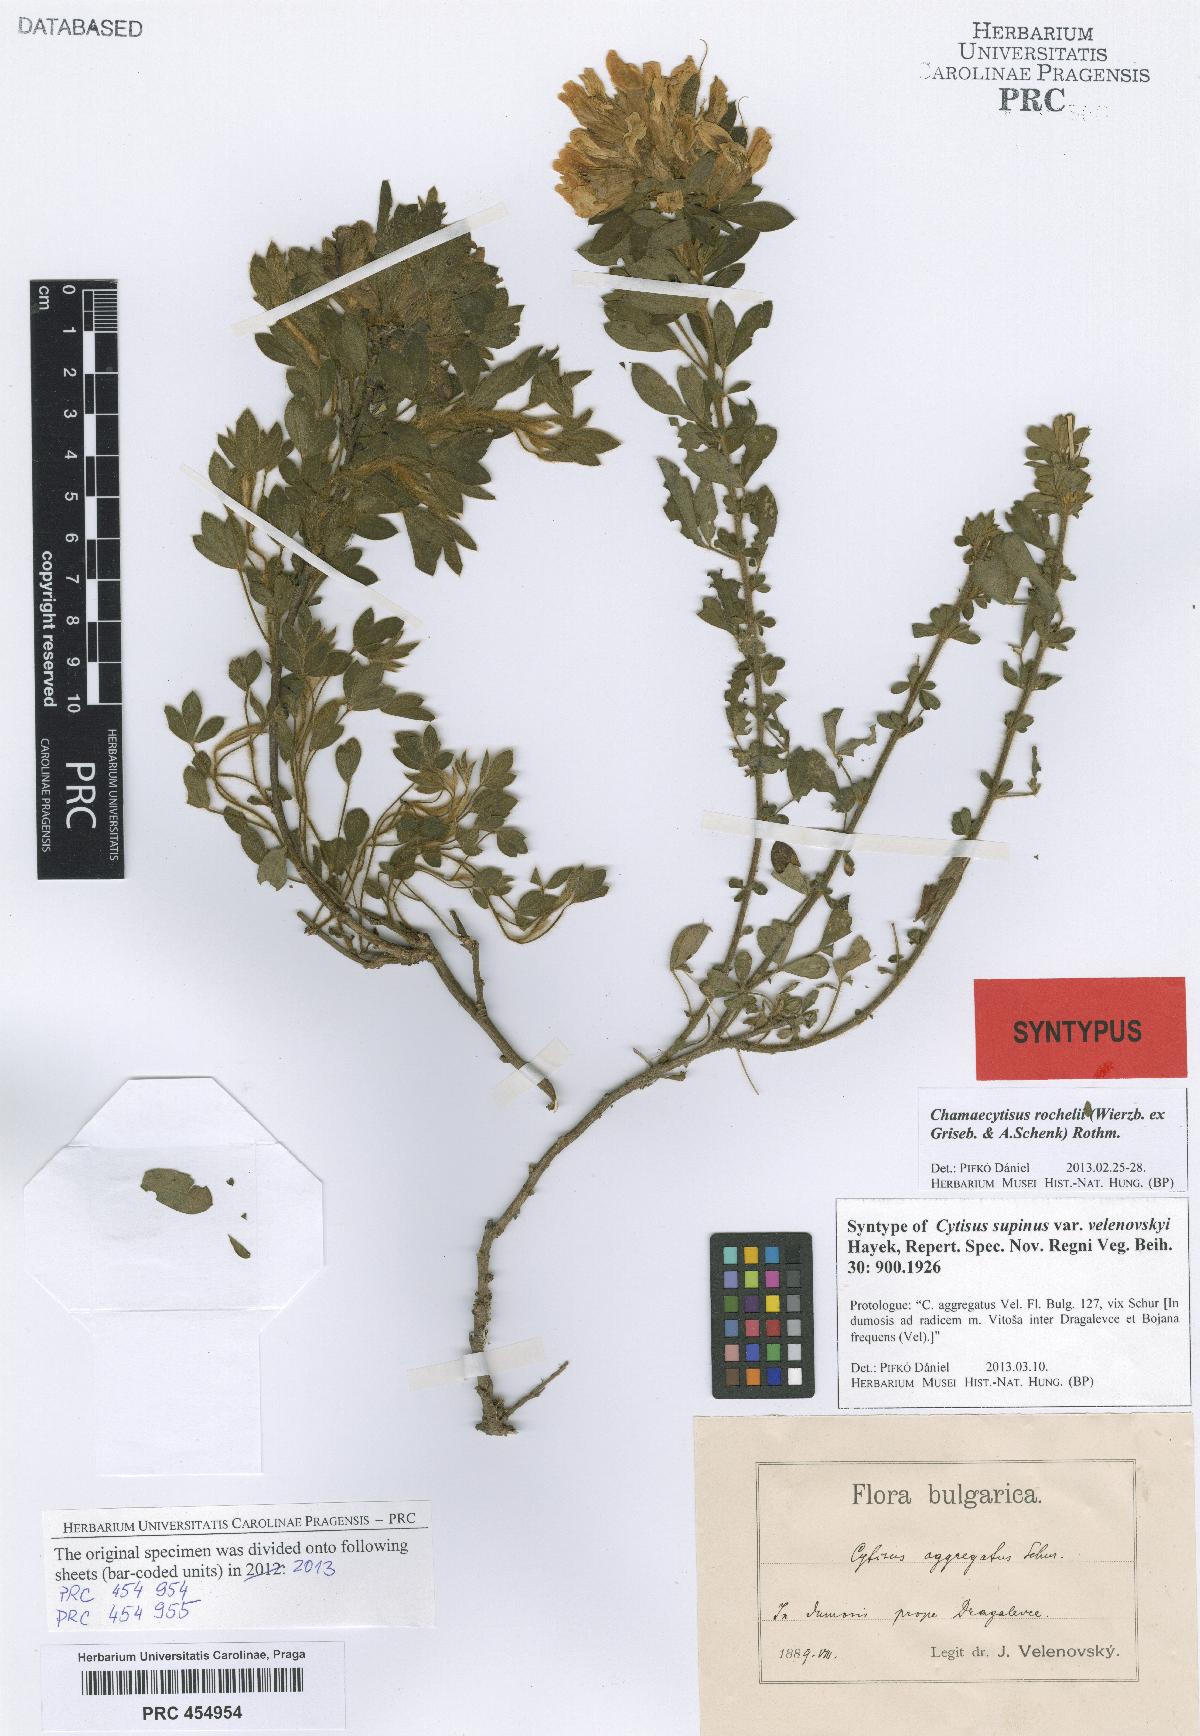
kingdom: Plantae
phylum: Tracheophyta
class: Magnoliopsida
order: Fabales
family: Fabaceae
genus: Chamaecytisus
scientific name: Chamaecytisus rochelii
